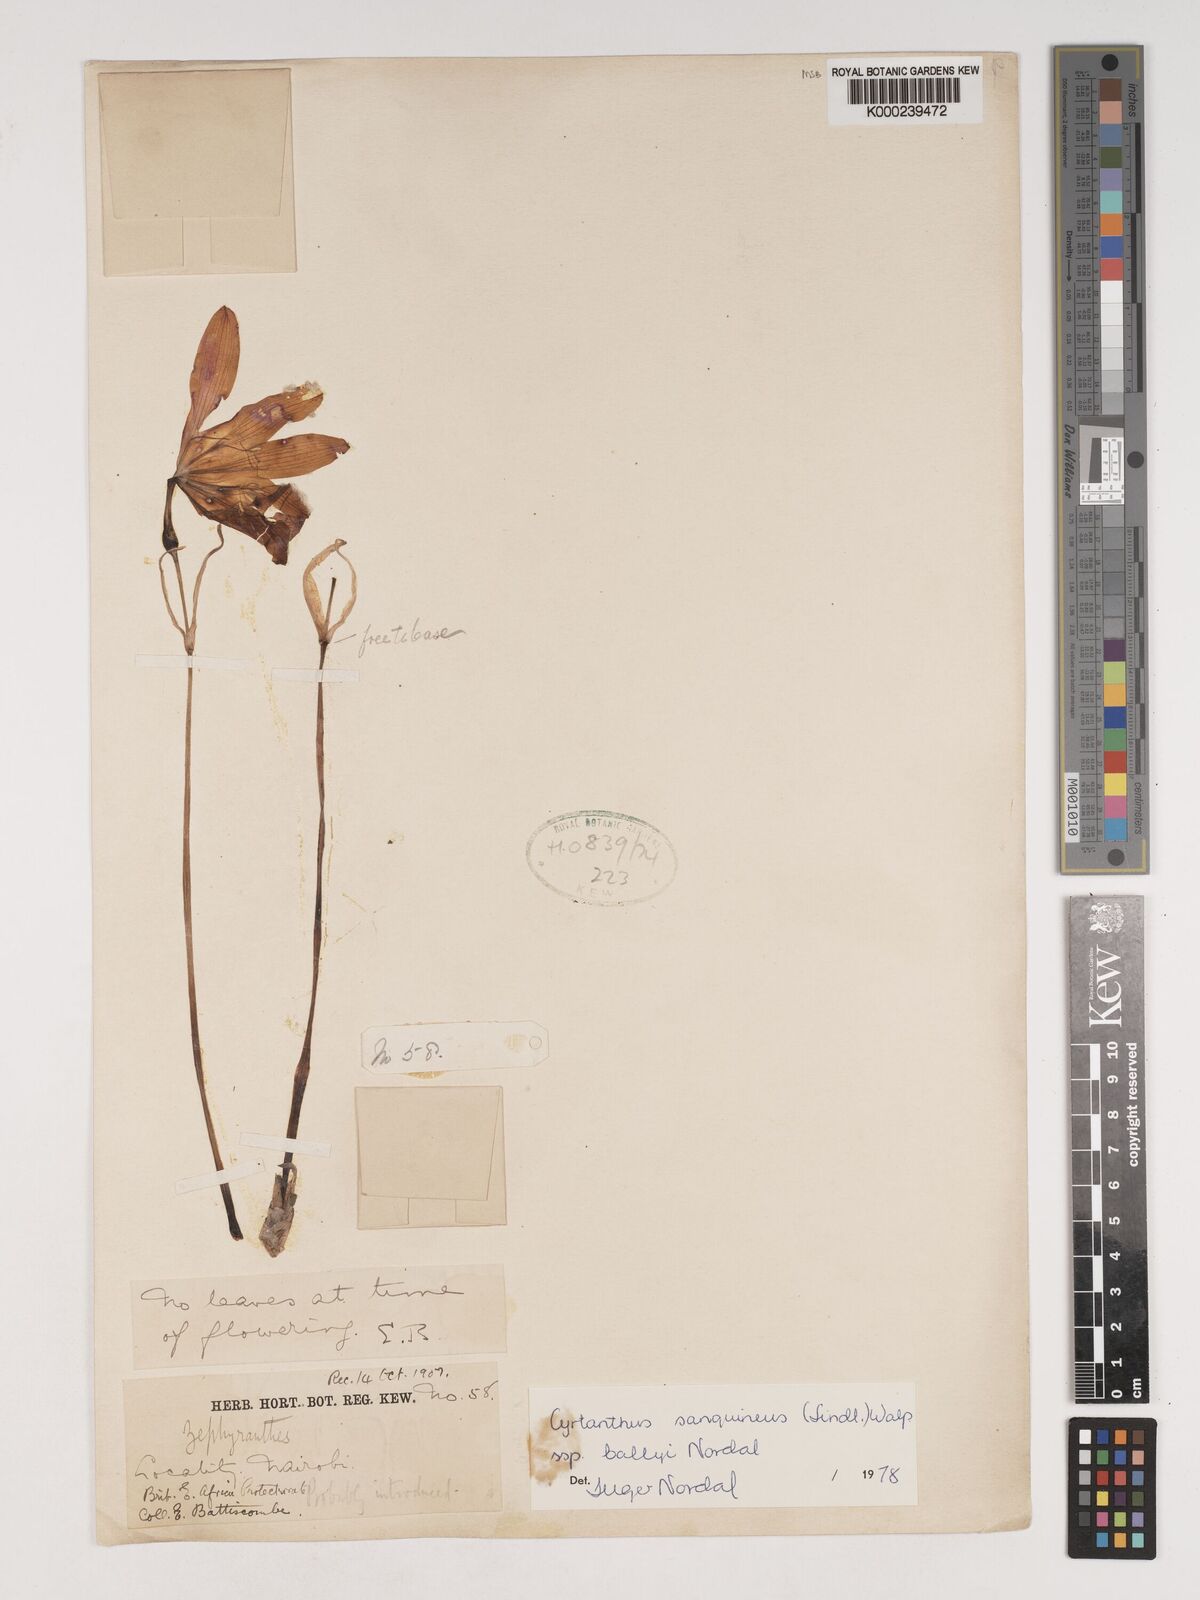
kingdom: Plantae
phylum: Tracheophyta
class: Liliopsida
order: Asparagales
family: Amaryllidaceae
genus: Cyrtanthus
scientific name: Cyrtanthus sanguineus
